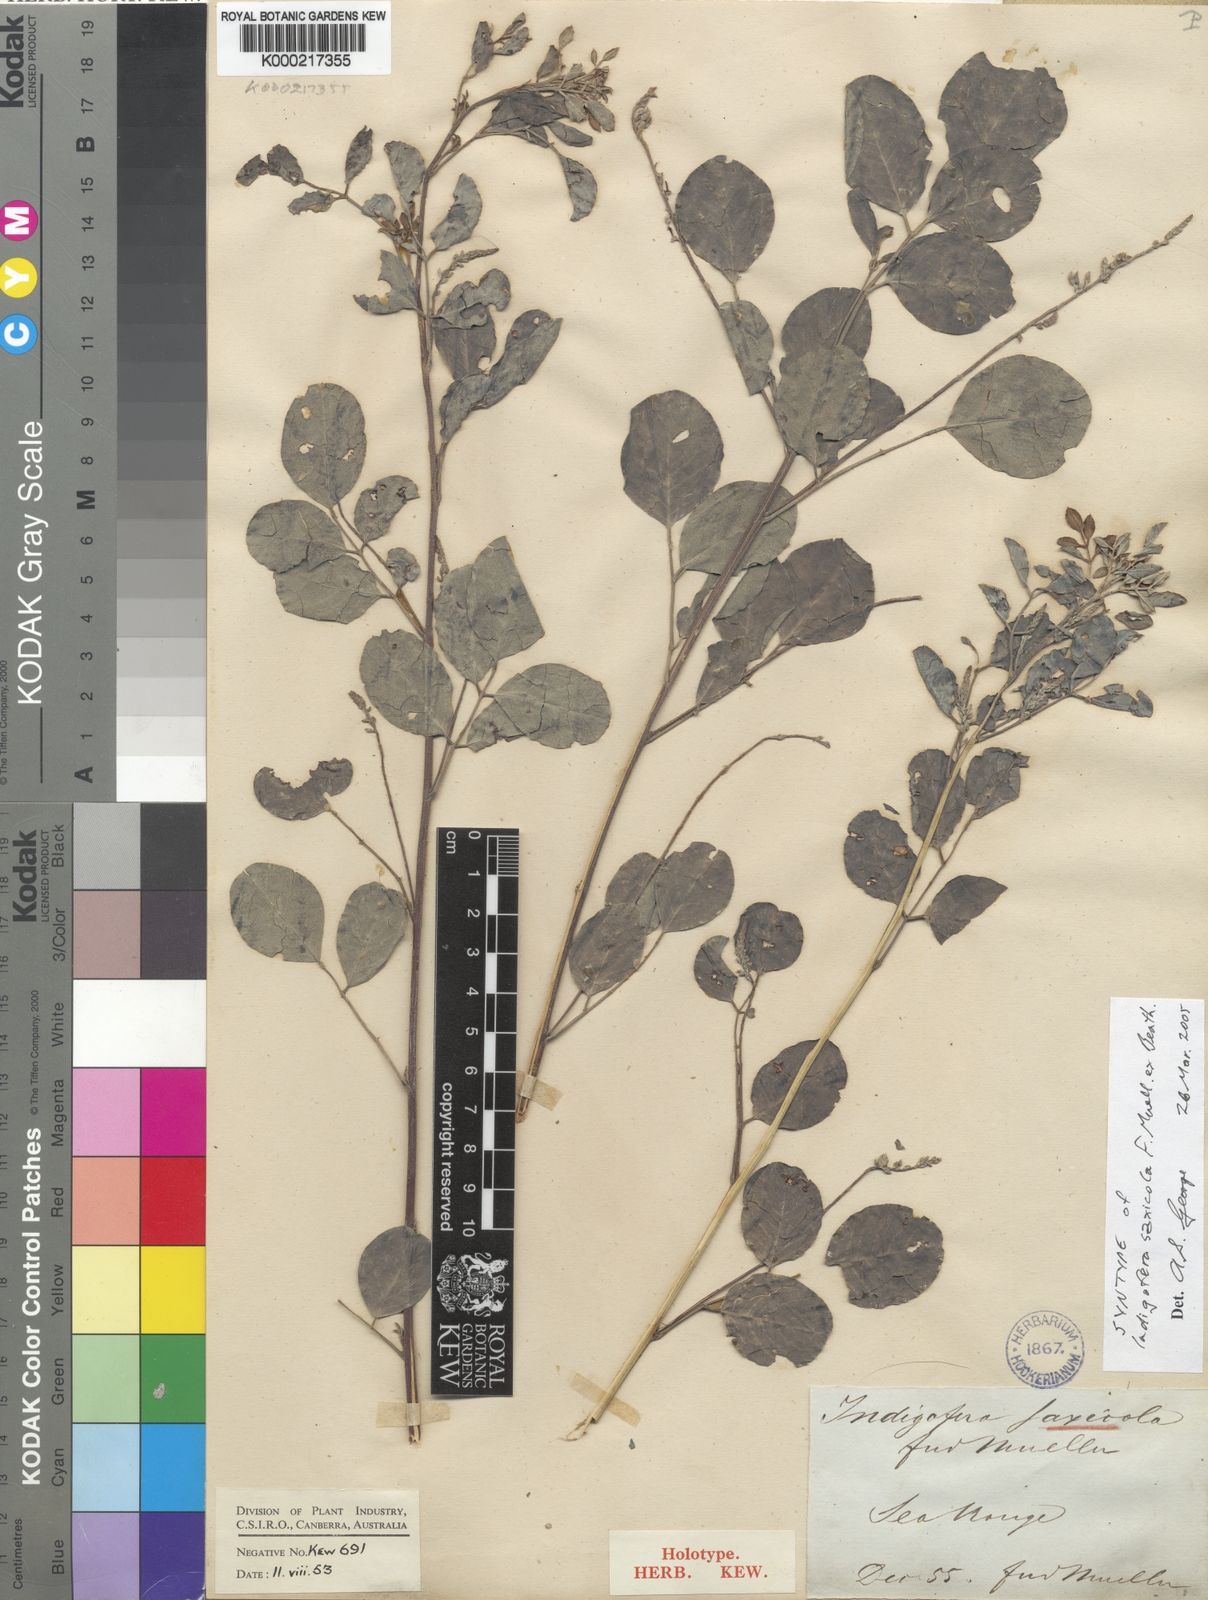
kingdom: Plantae
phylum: Tracheophyta
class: Magnoliopsida
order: Fabales
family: Fabaceae
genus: Indigofera
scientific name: Indigofera saxicola
